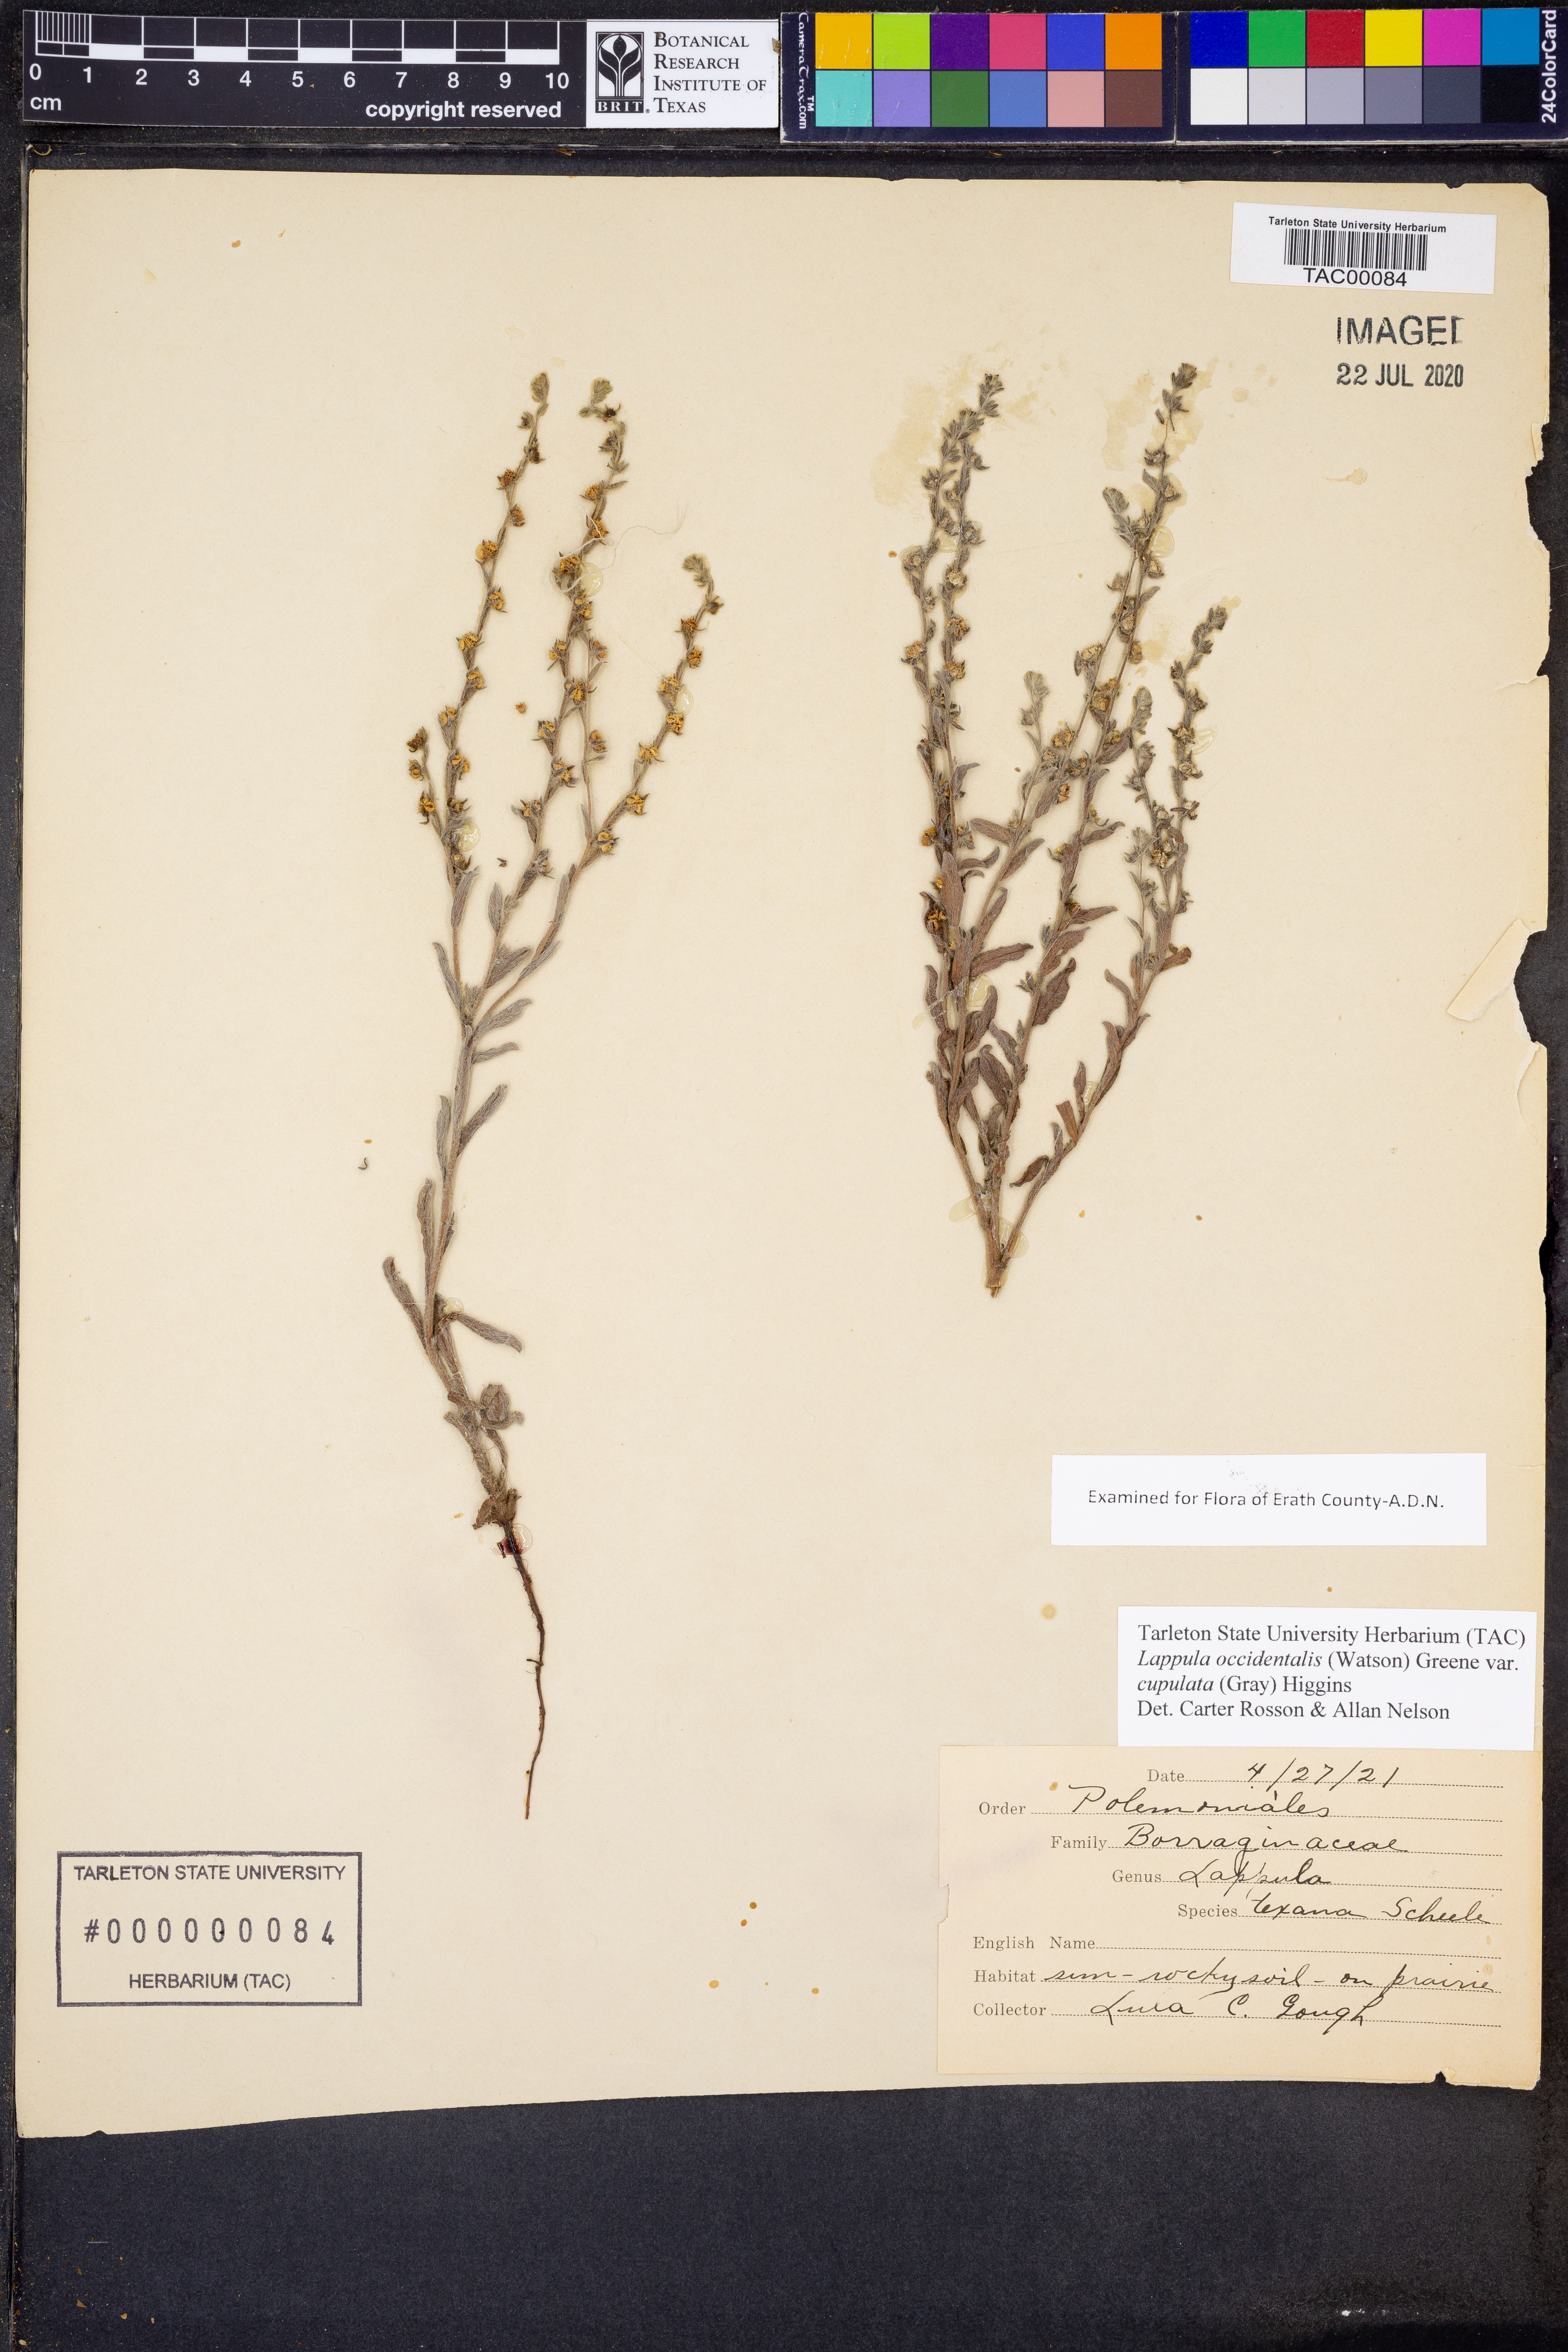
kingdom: Plantae
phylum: Tracheophyta
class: Magnoliopsida
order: Boraginales
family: Boraginaceae
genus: Lappula
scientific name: Lappula occidentalis
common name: Western stickseed
